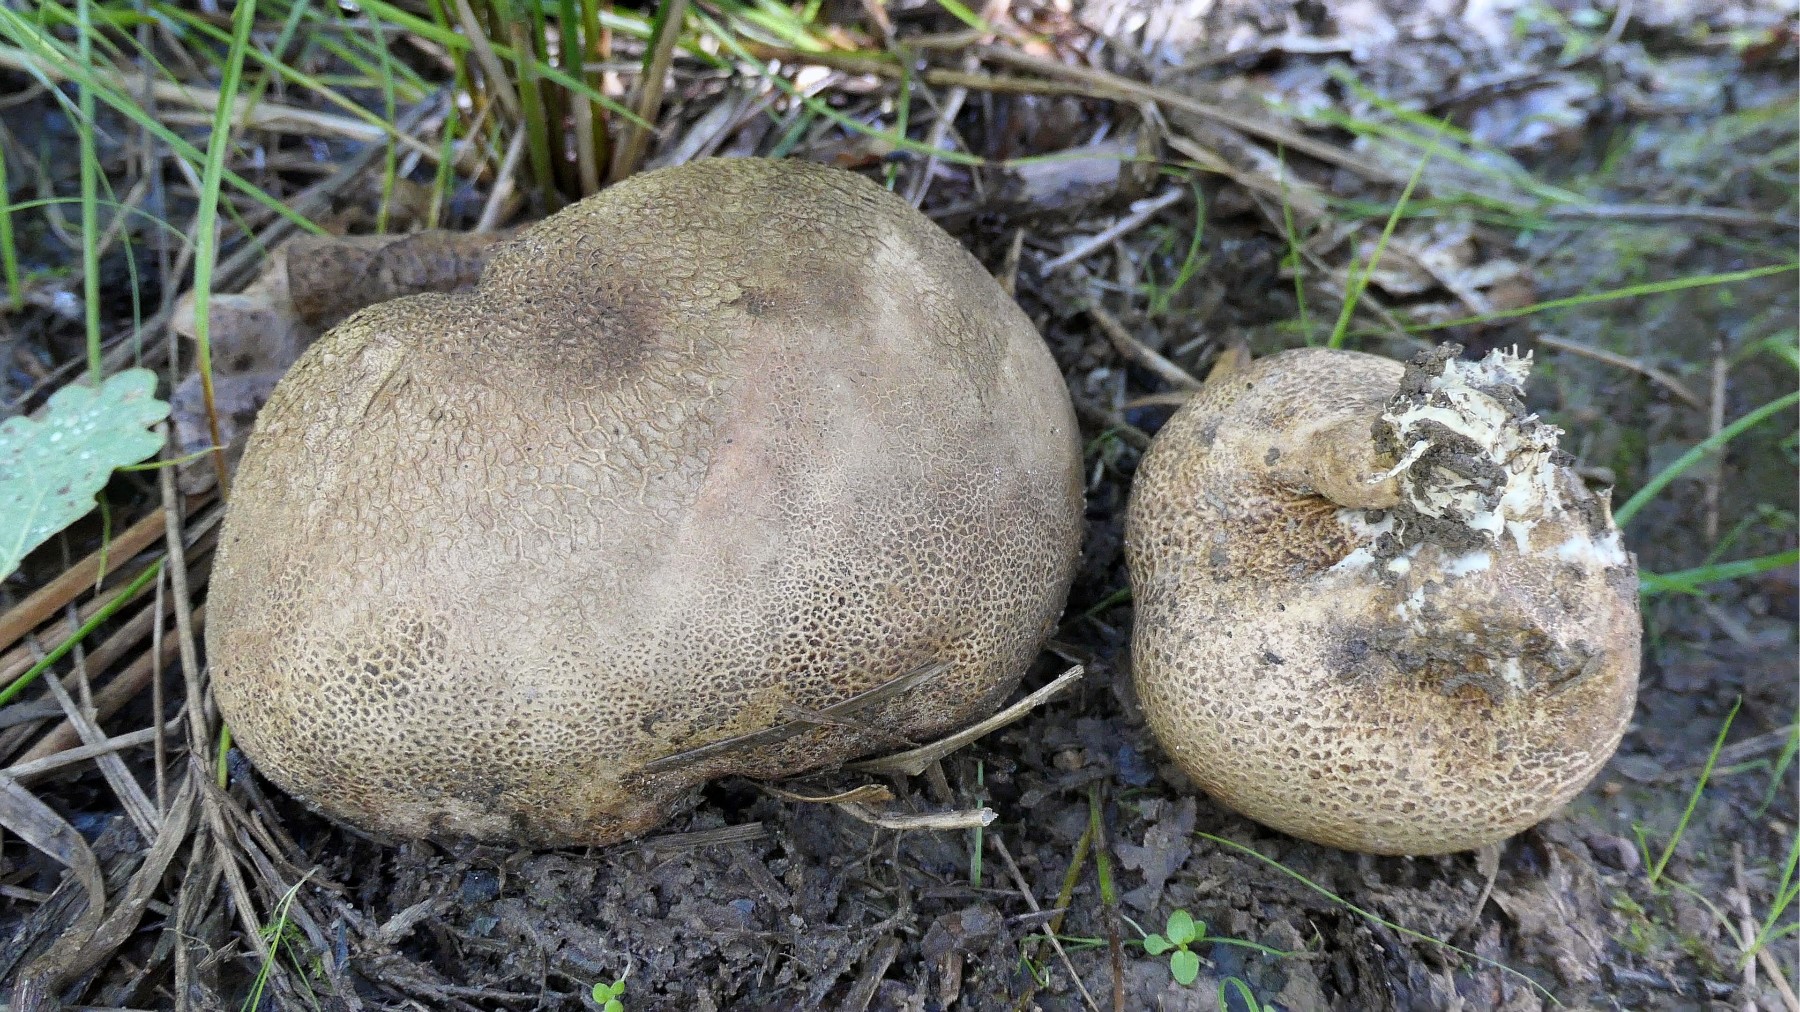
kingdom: Fungi
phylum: Basidiomycota
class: Agaricomycetes
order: Boletales
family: Sclerodermataceae
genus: Scleroderma
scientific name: Scleroderma verrucosum
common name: stilket bruskbold
